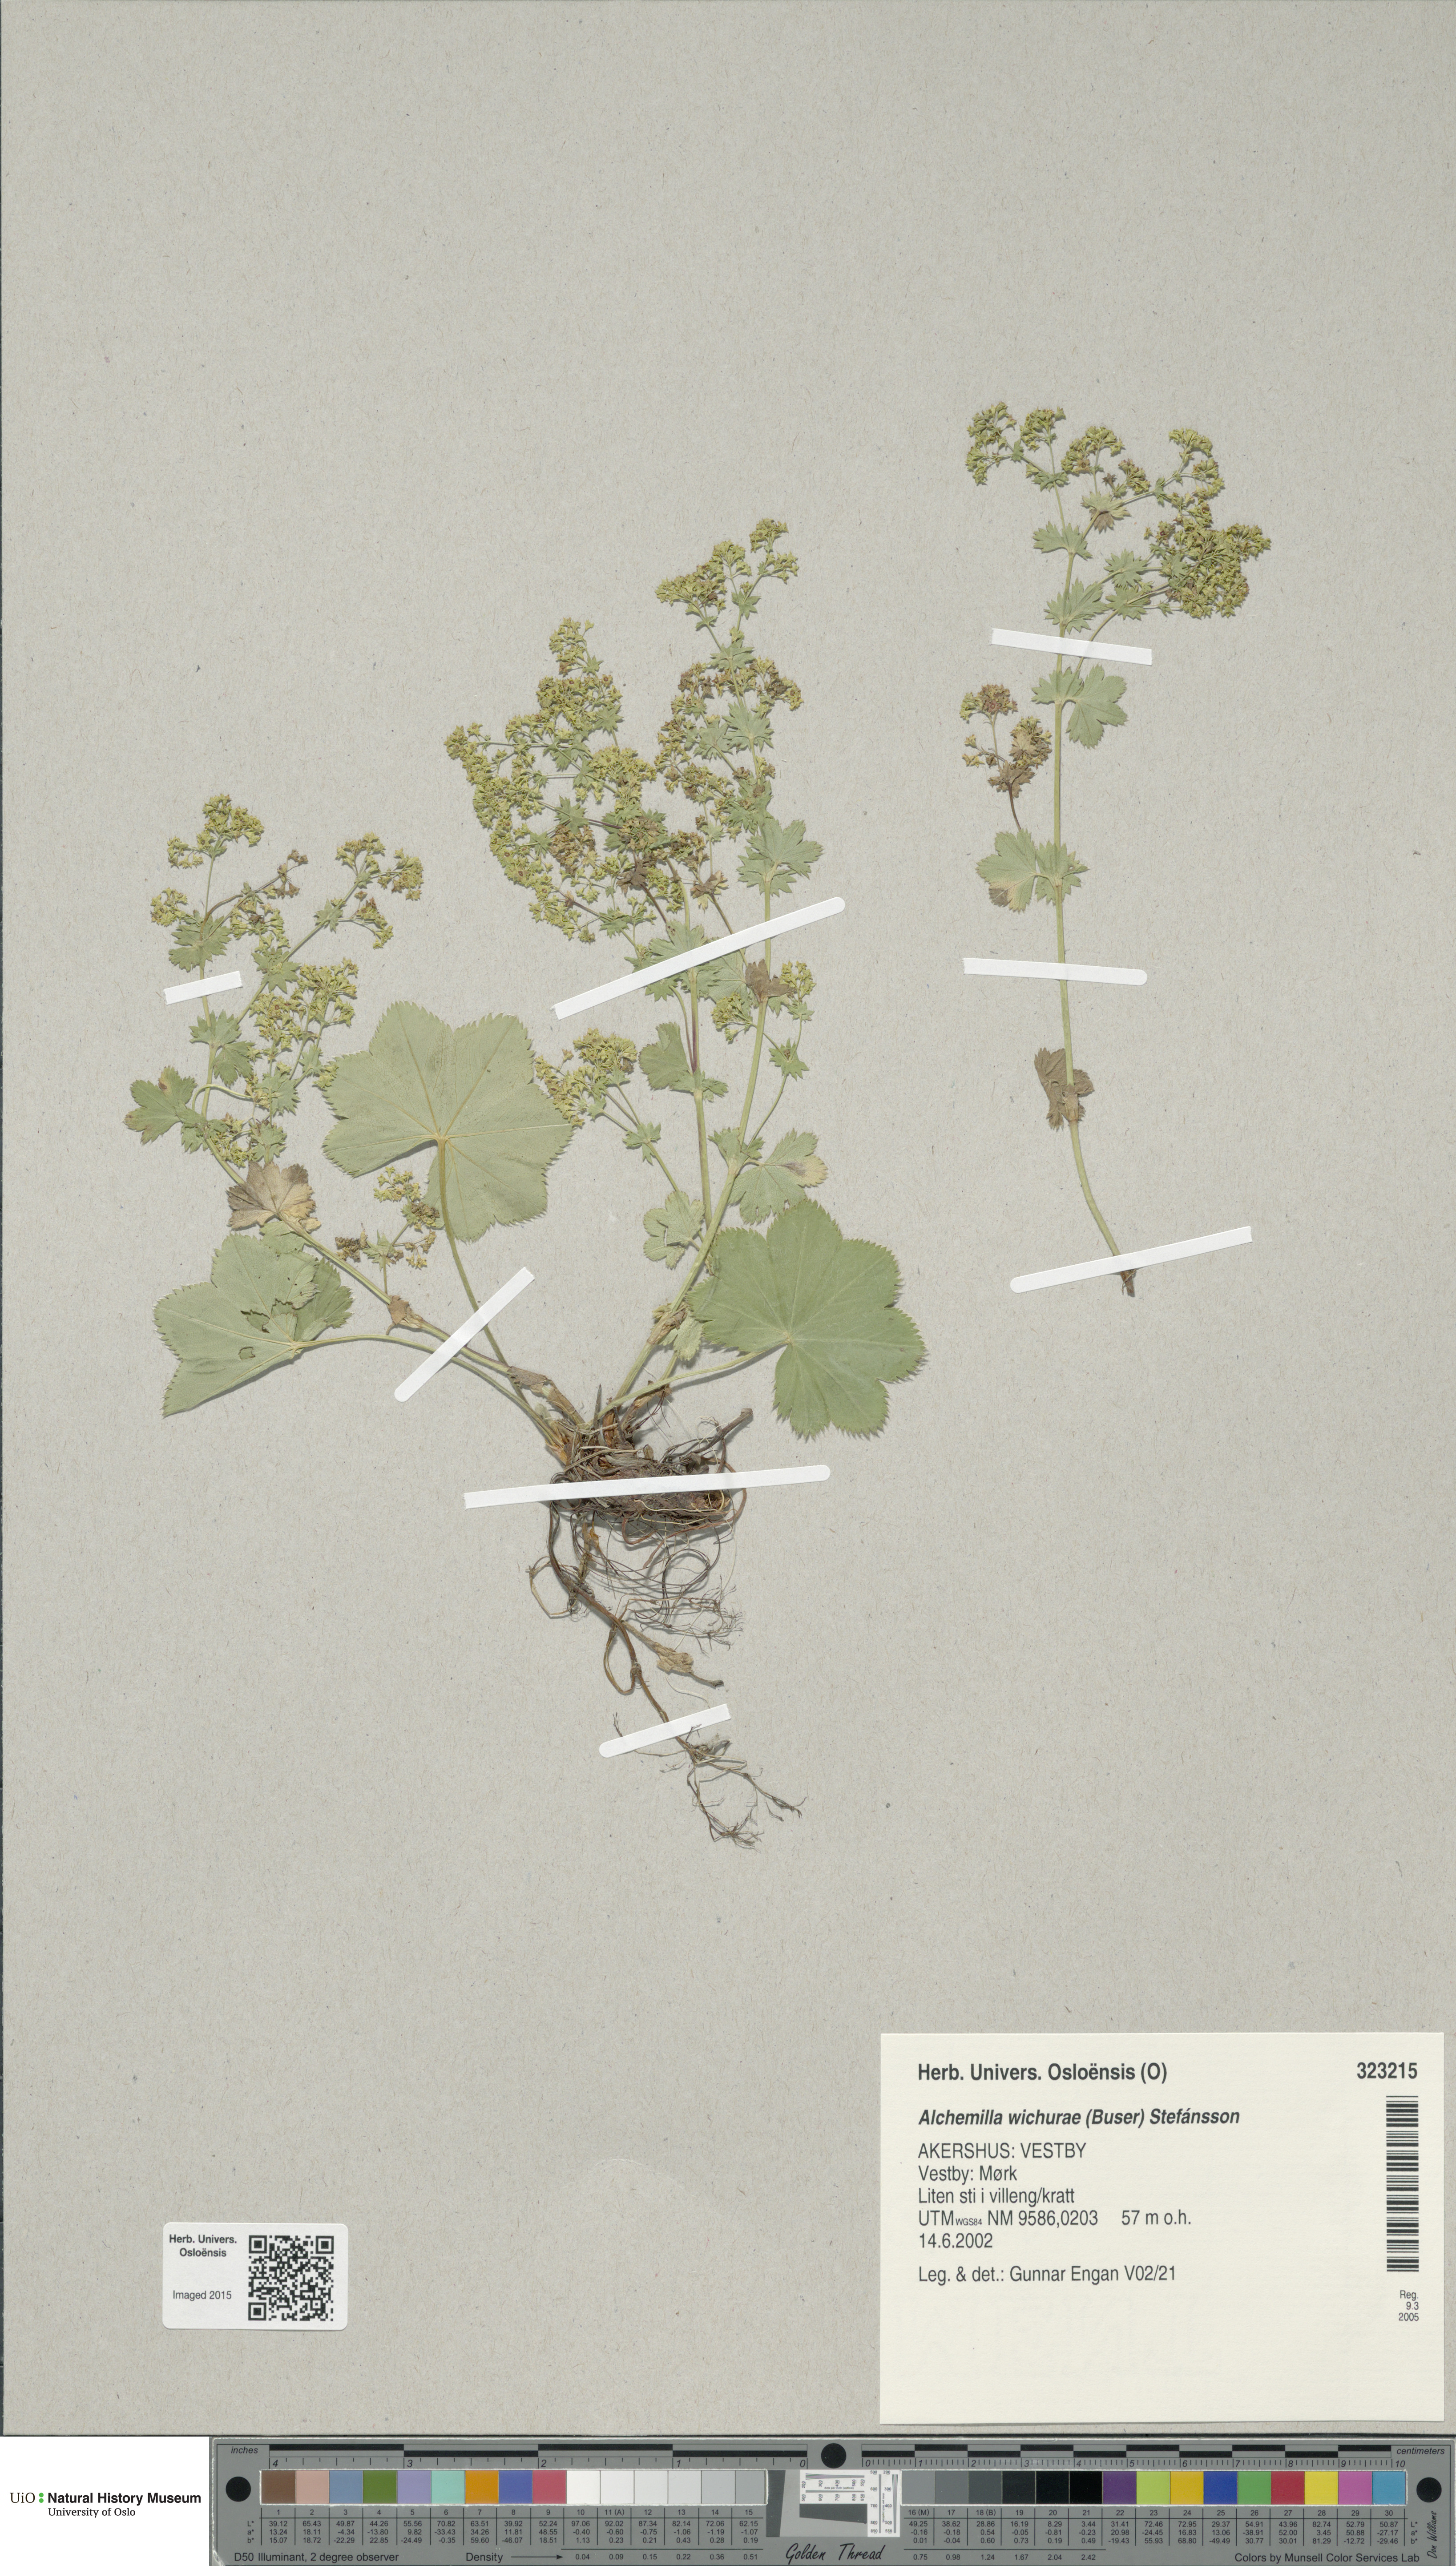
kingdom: Plantae
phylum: Tracheophyta
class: Magnoliopsida
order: Rosales
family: Rosaceae
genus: Alchemilla
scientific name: Alchemilla wichurae
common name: Rock lady's mantle
